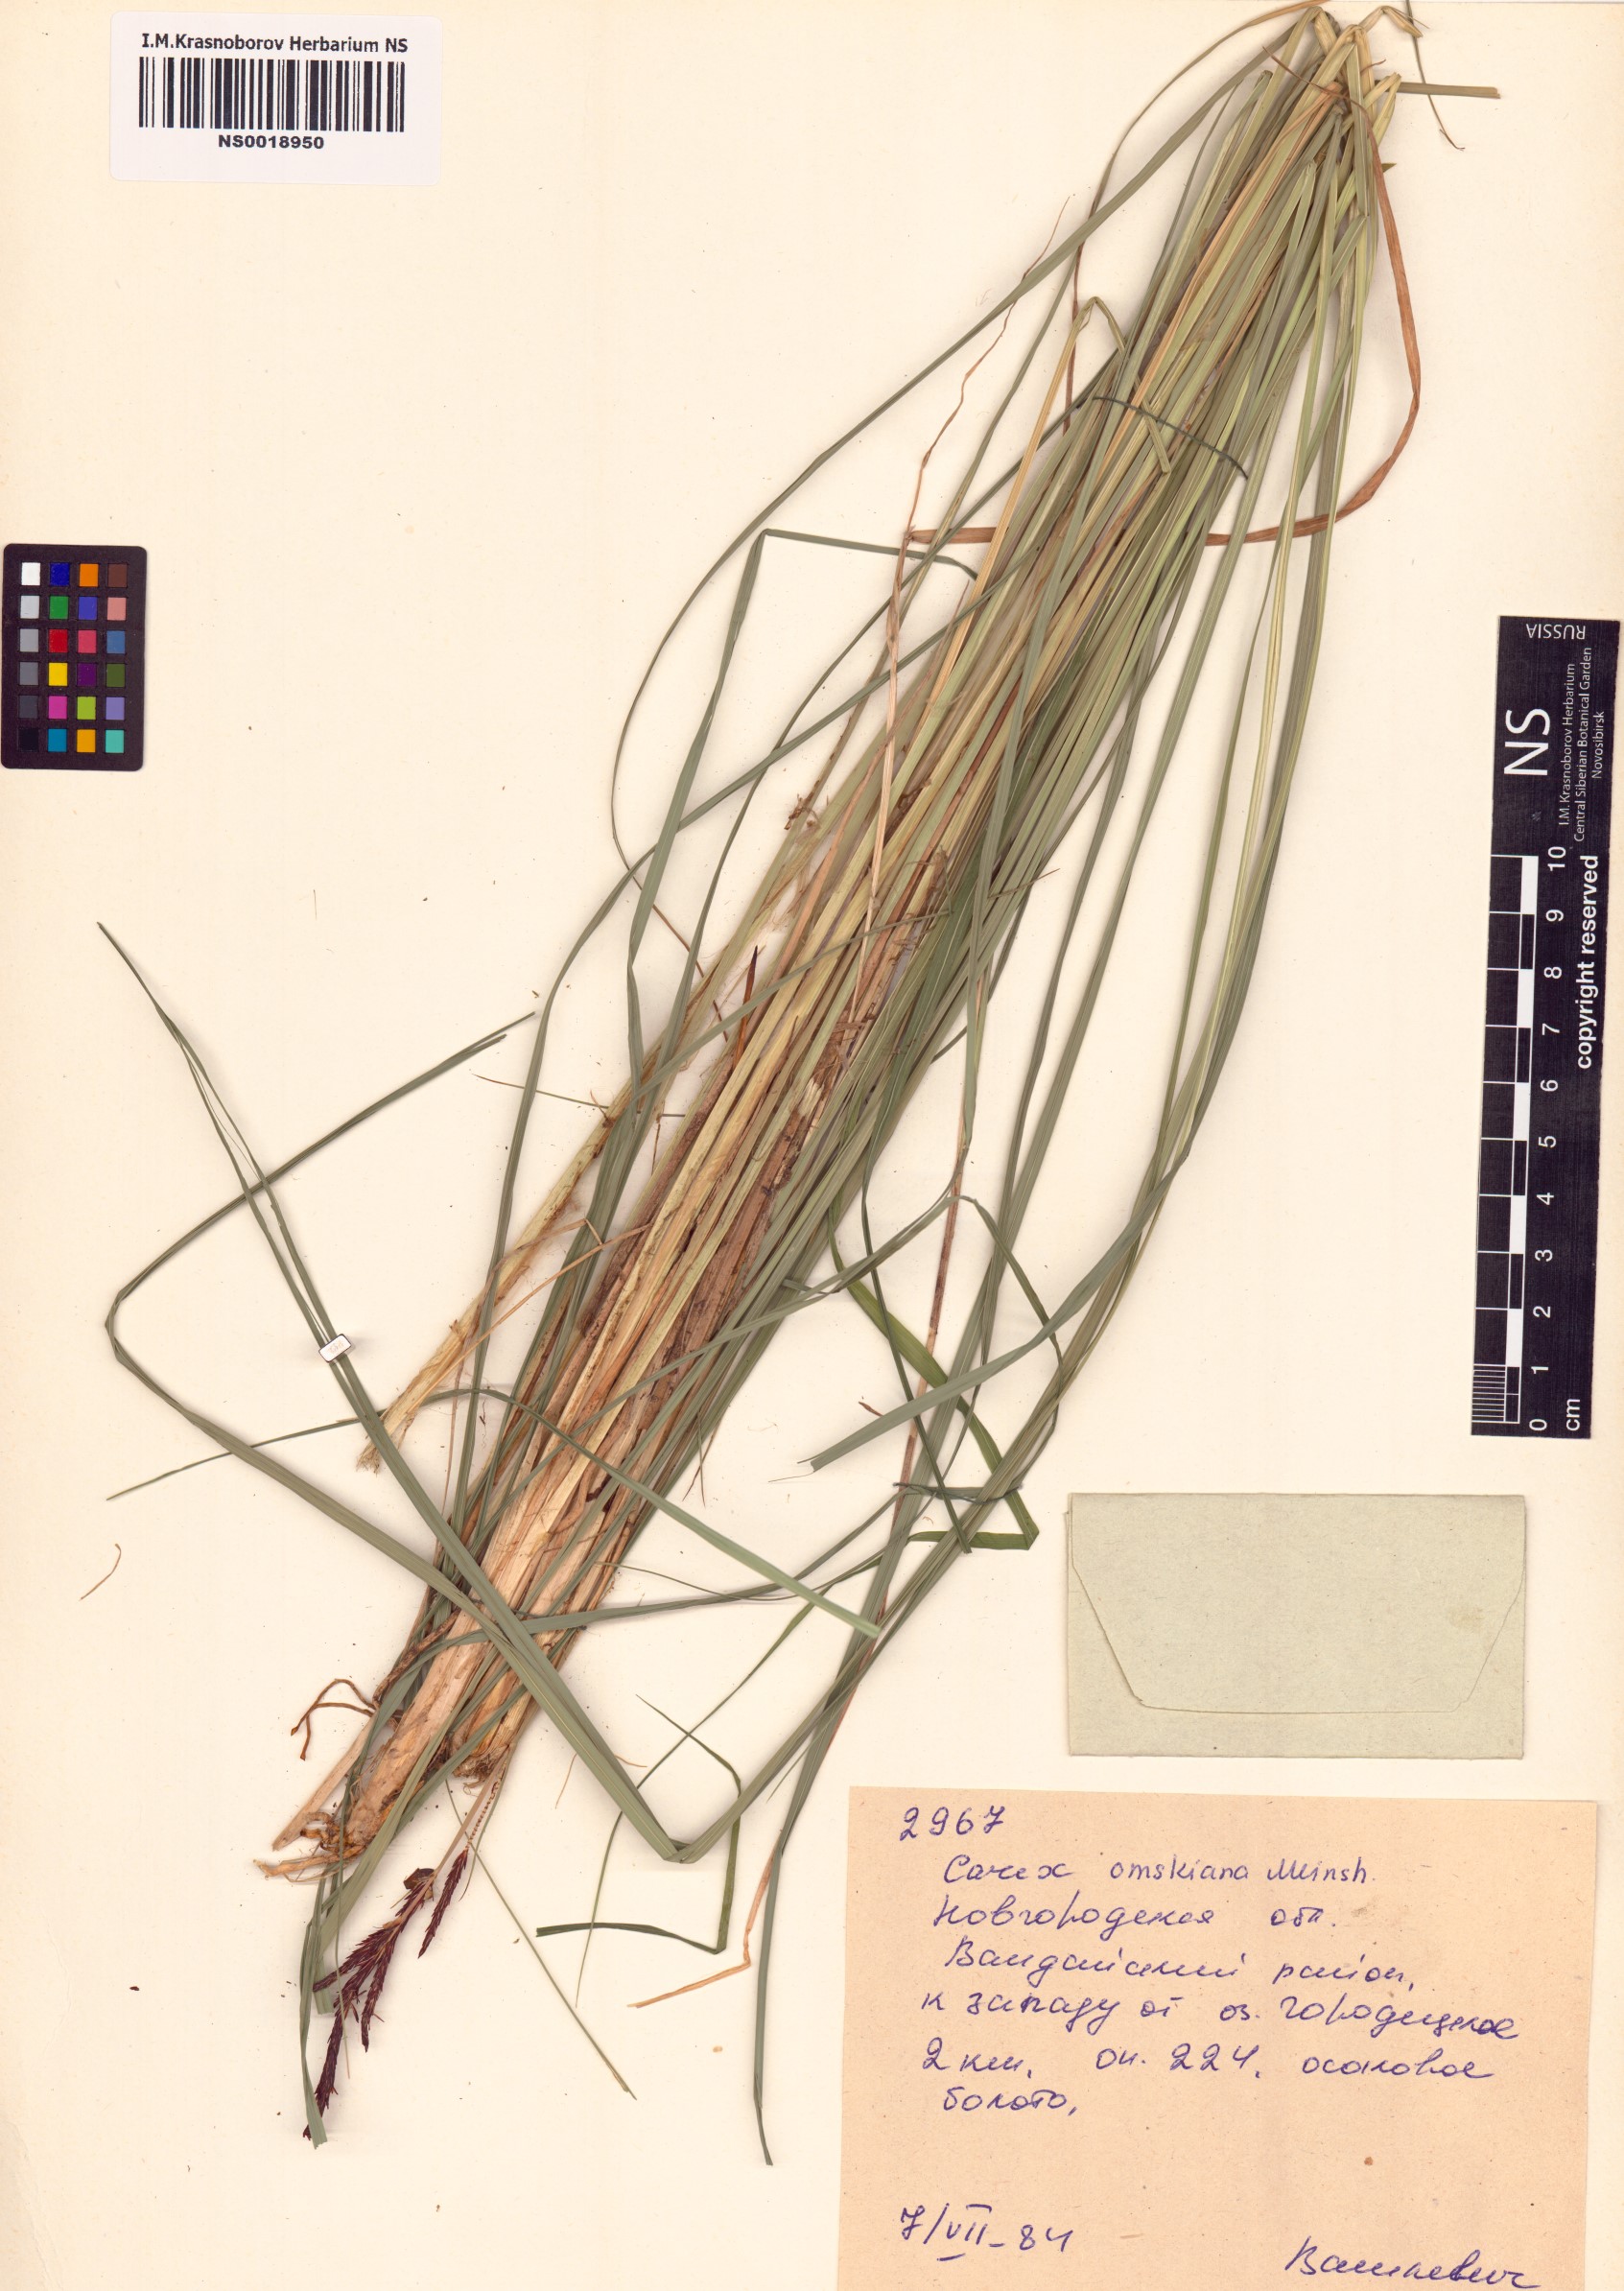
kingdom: Plantae
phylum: Tracheophyta
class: Liliopsida
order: Poales
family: Cyperaceae
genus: Carex
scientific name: Carex elata
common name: Tufted sedge
